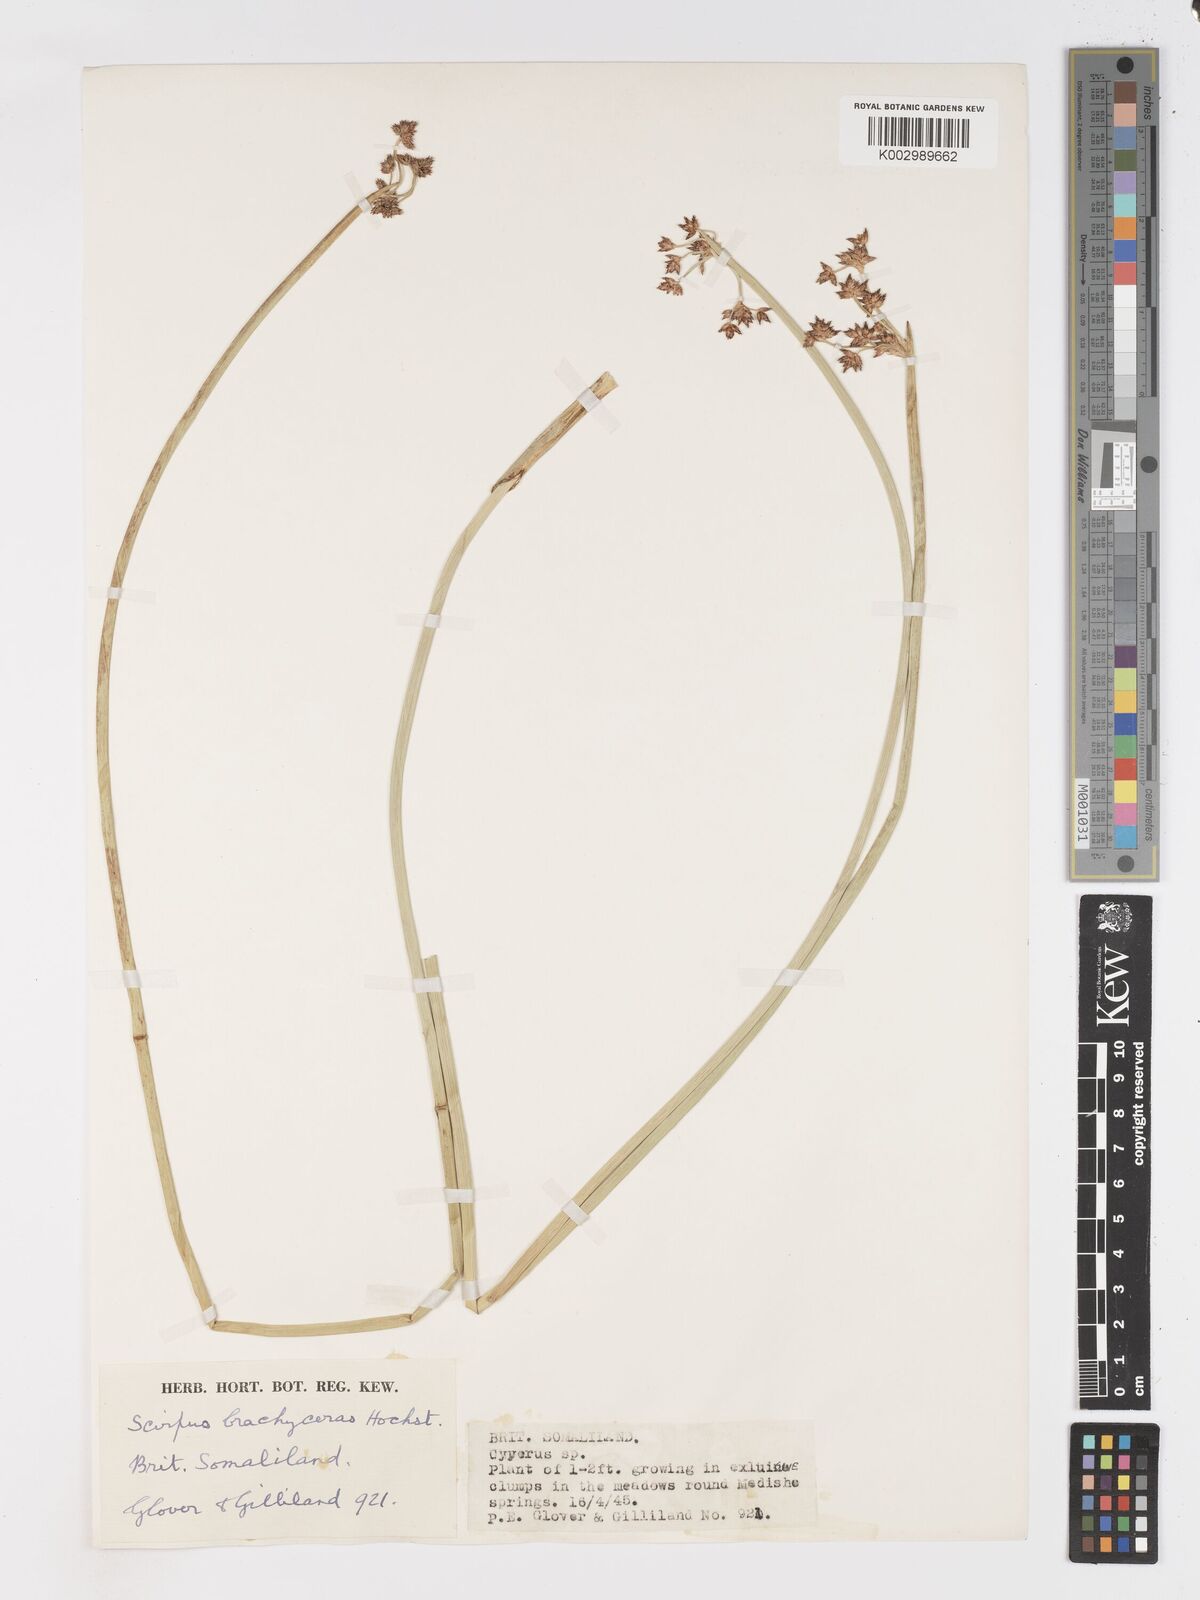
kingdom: Plantae
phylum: Tracheophyta
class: Liliopsida
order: Poales
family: Cyperaceae
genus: Schoenoplectiella
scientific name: Schoenoplectiella brachyceras
